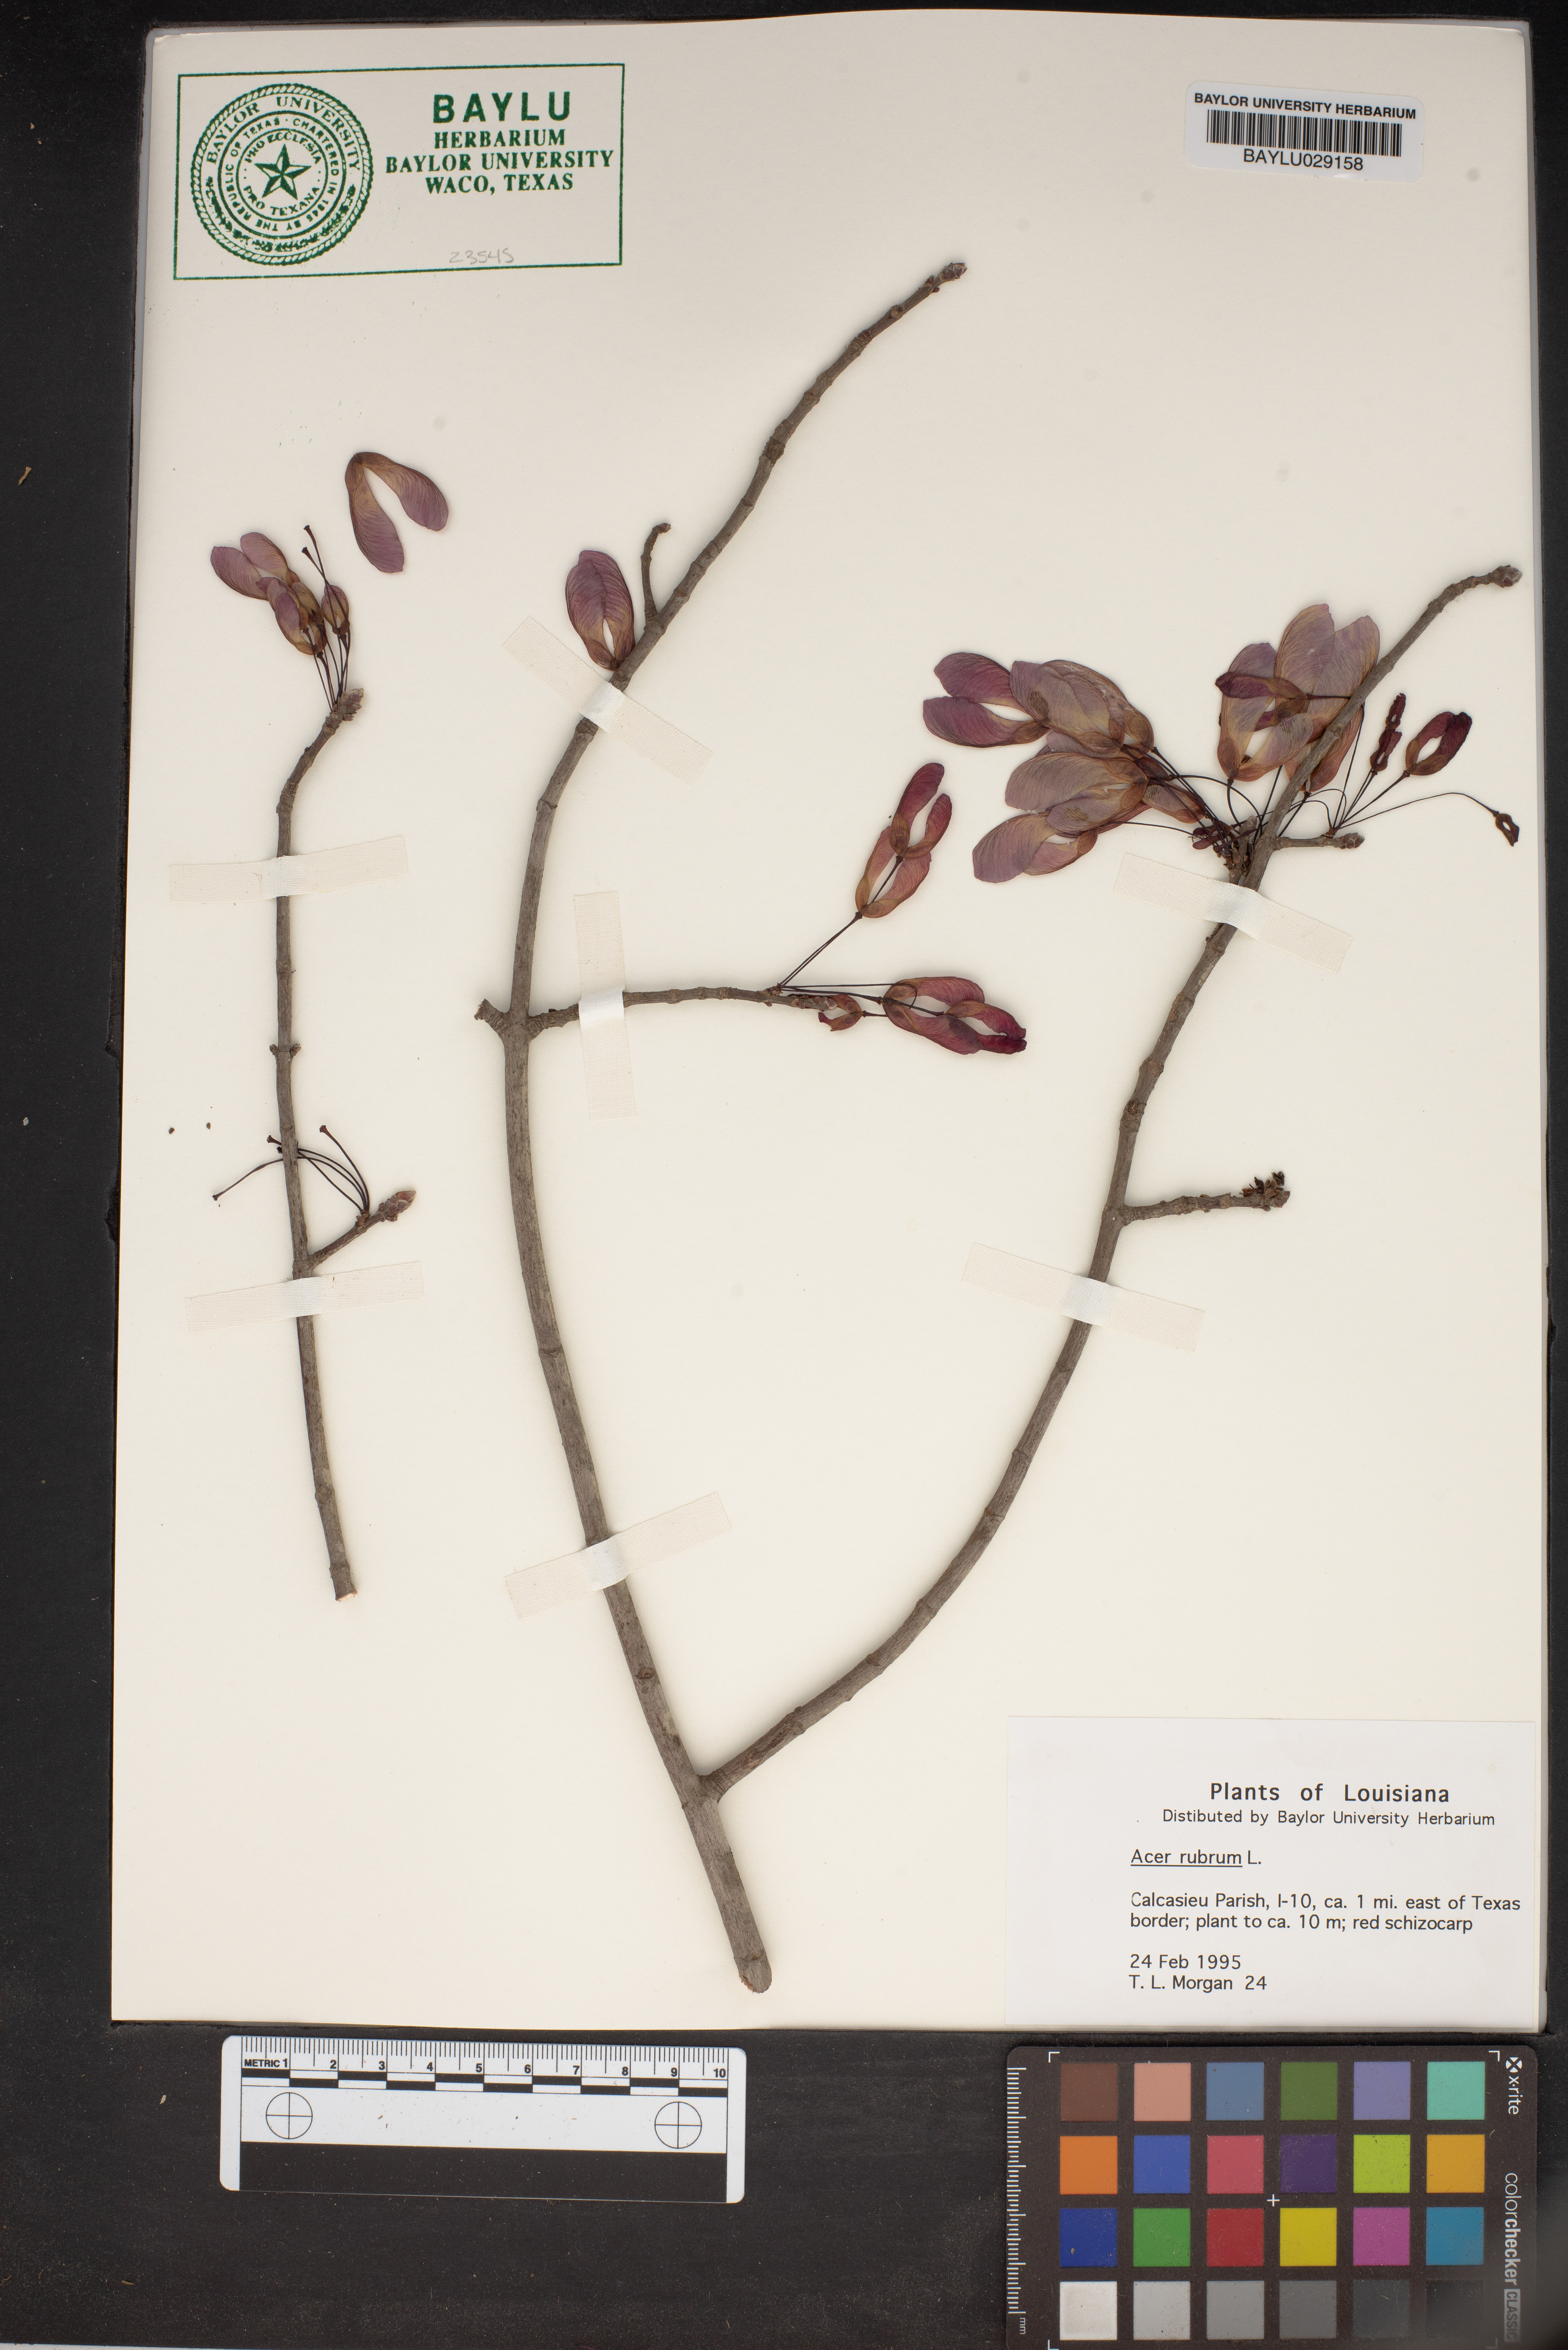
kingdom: Plantae
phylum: Tracheophyta
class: Magnoliopsida
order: Sapindales
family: Sapindaceae
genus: Acer
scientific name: Acer rubrum
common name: Red maple
